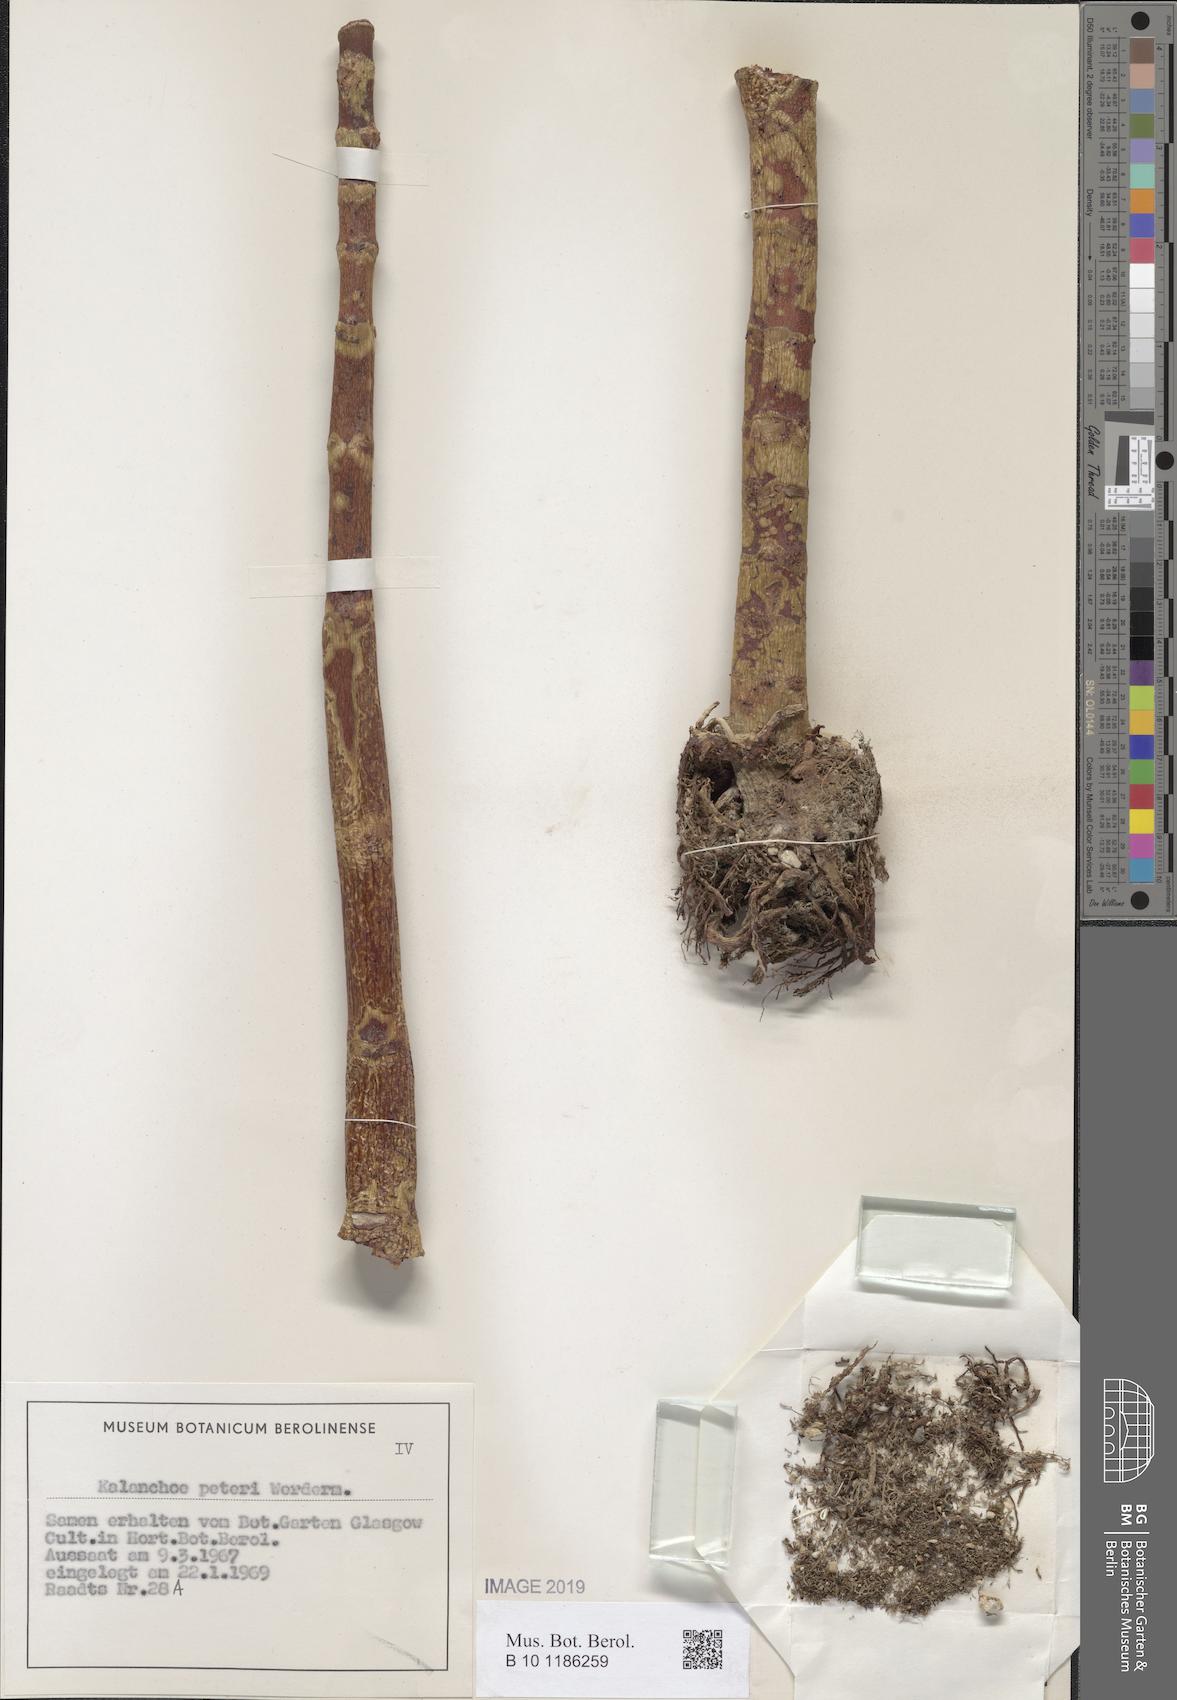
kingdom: Plantae
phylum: Tracheophyta
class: Magnoliopsida
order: Saxifragales
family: Crassulaceae
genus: Kalanchoe
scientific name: Kalanchoe peteri
